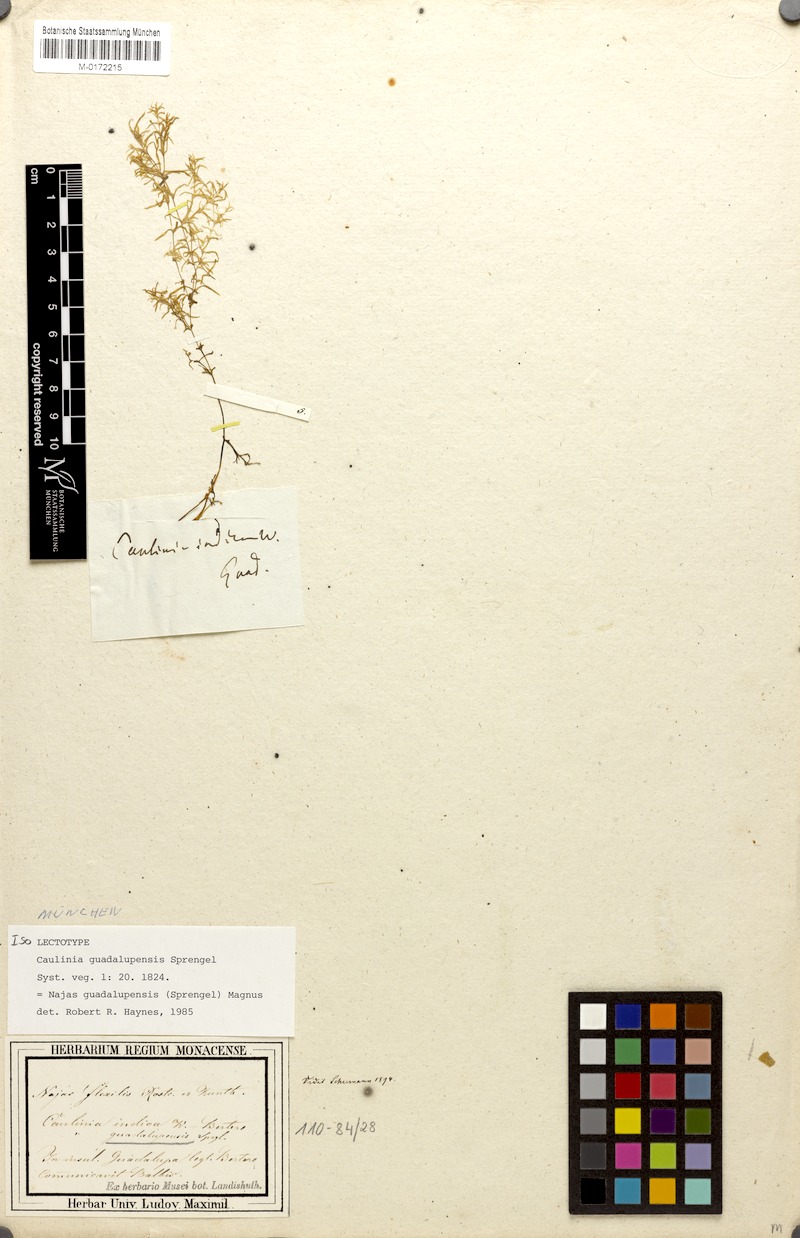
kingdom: Plantae
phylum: Tracheophyta
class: Liliopsida
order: Alismatales
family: Hydrocharitaceae
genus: Najas
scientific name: Najas guadalupensis
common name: Southern naiad
